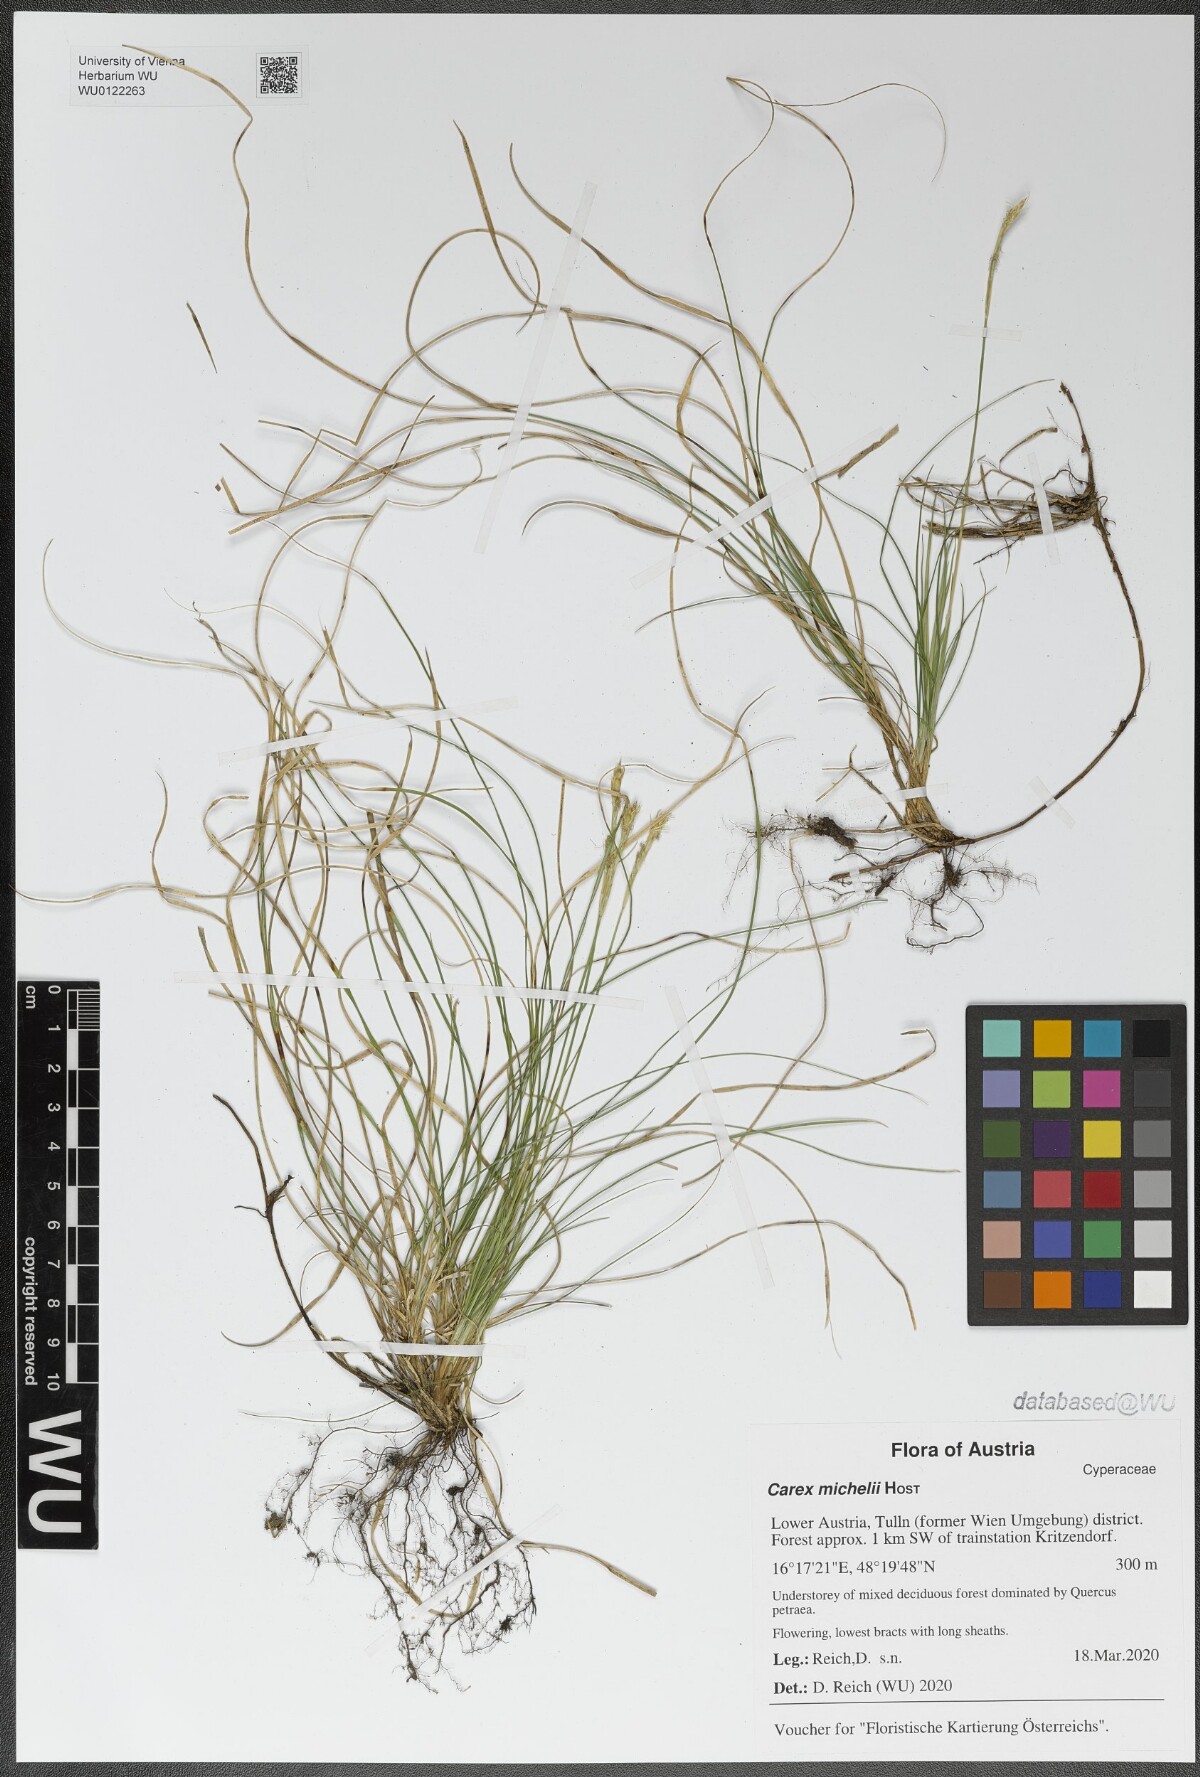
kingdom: Plantae
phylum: Tracheophyta
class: Liliopsida
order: Poales
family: Cyperaceae
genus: Carex
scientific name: Carex michelii
